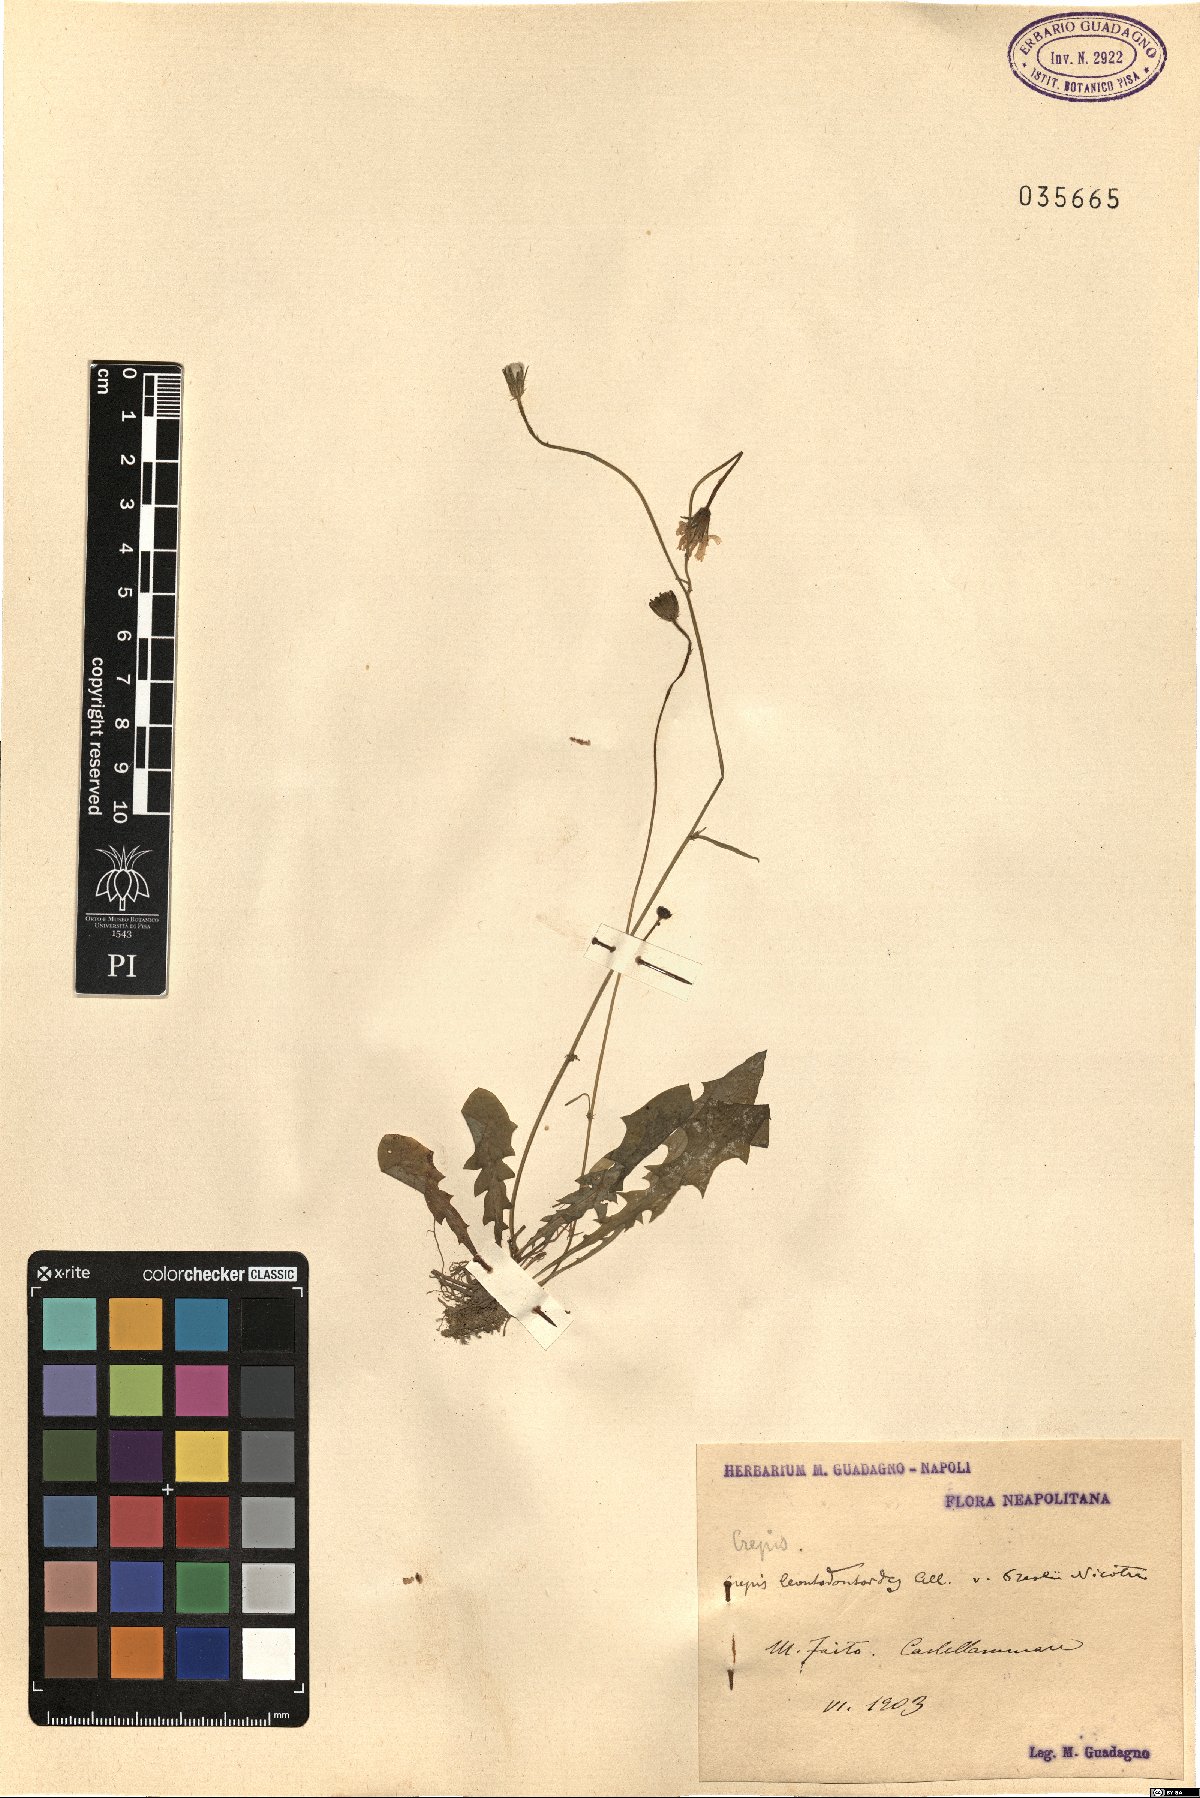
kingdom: Plantae
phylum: Tracheophyta
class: Magnoliopsida
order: Asterales
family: Asteraceae
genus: Crepis
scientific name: Crepis leontodontoides
